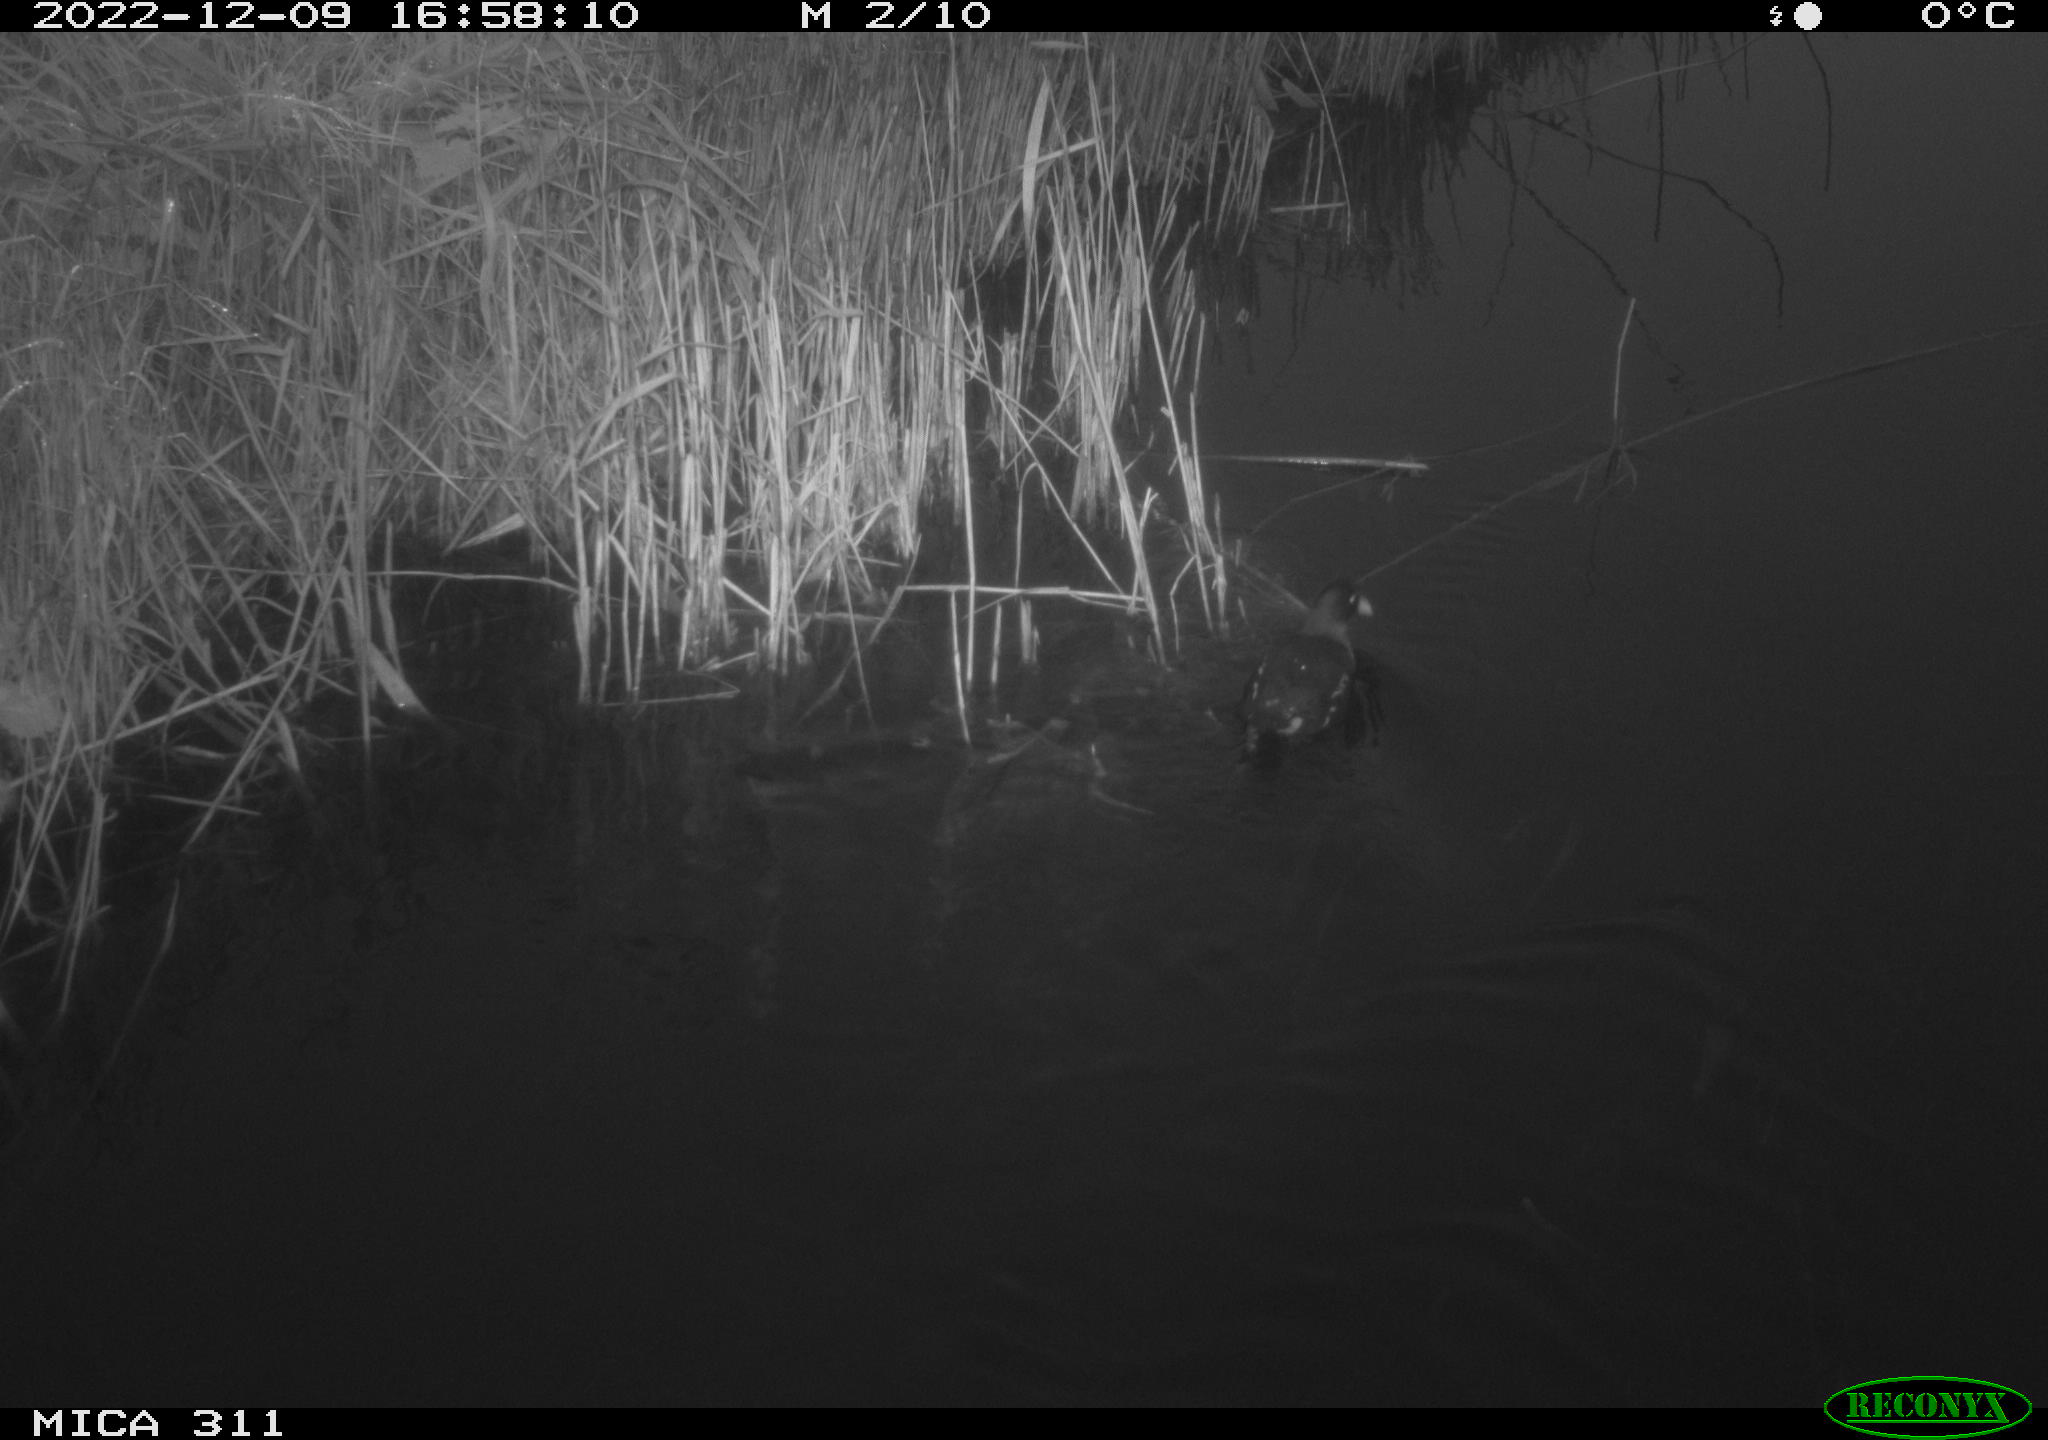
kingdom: Animalia
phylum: Chordata
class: Aves
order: Gruiformes
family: Rallidae
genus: Gallinula
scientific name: Gallinula chloropus
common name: Common moorhen
